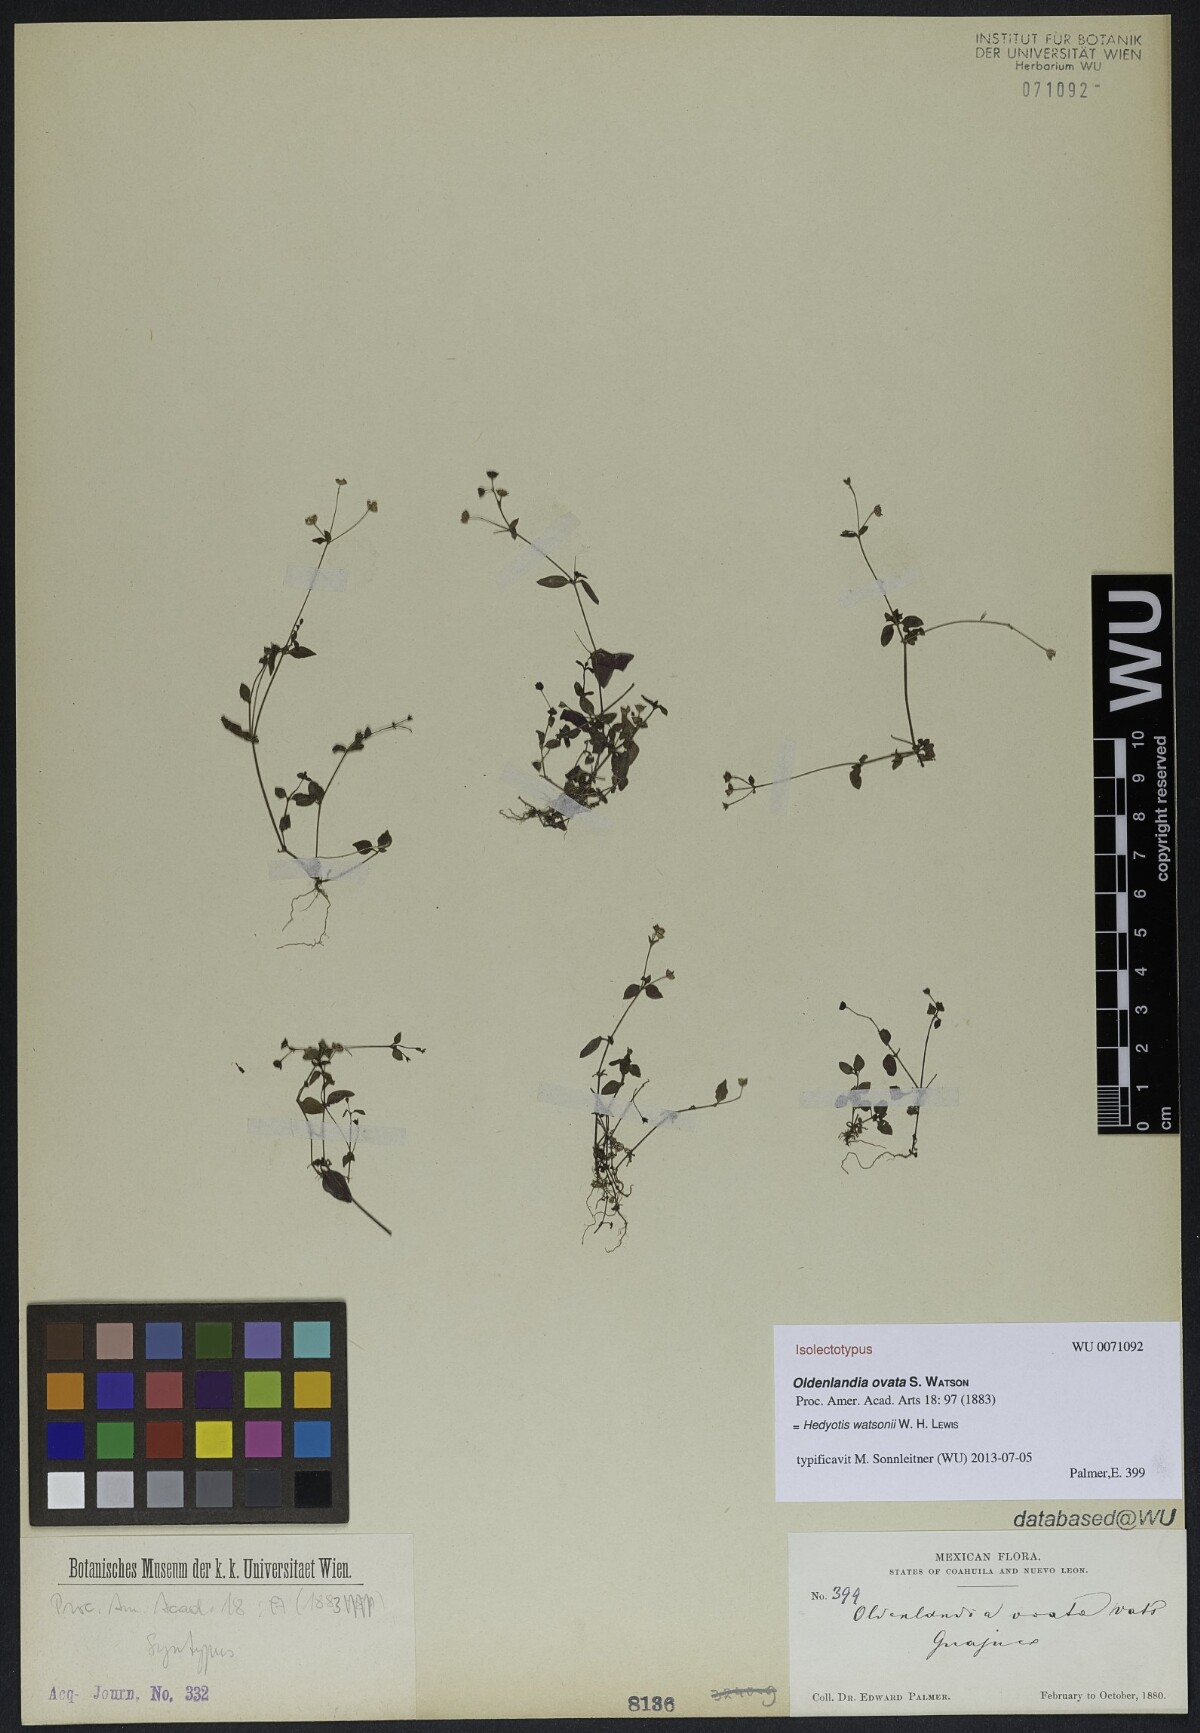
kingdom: Plantae
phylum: Tracheophyta
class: Magnoliopsida
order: Gentianales
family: Rubiaceae
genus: Oldenlandia
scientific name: Oldenlandia ovata
